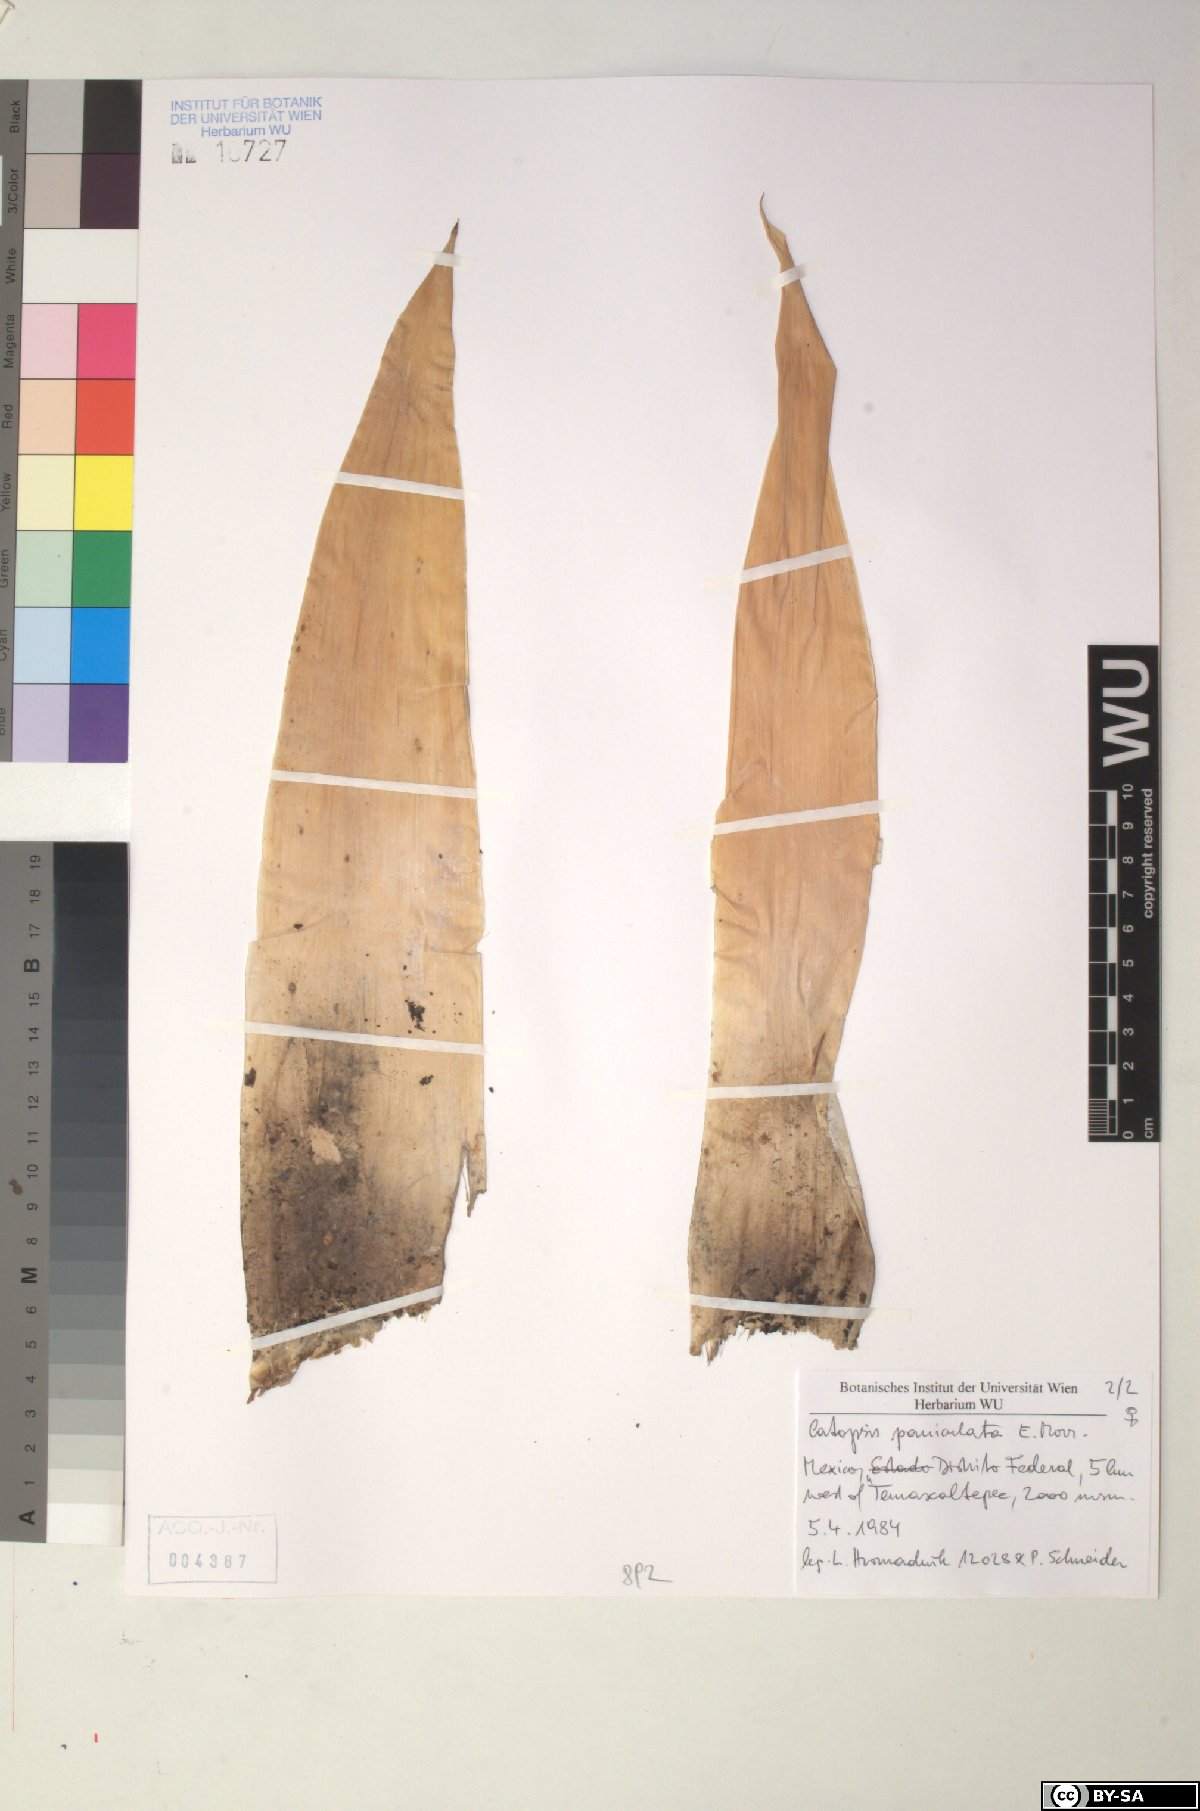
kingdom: Plantae
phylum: Tracheophyta
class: Liliopsida
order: Poales
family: Bromeliaceae
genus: Catopsis
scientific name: Catopsis paniculata
